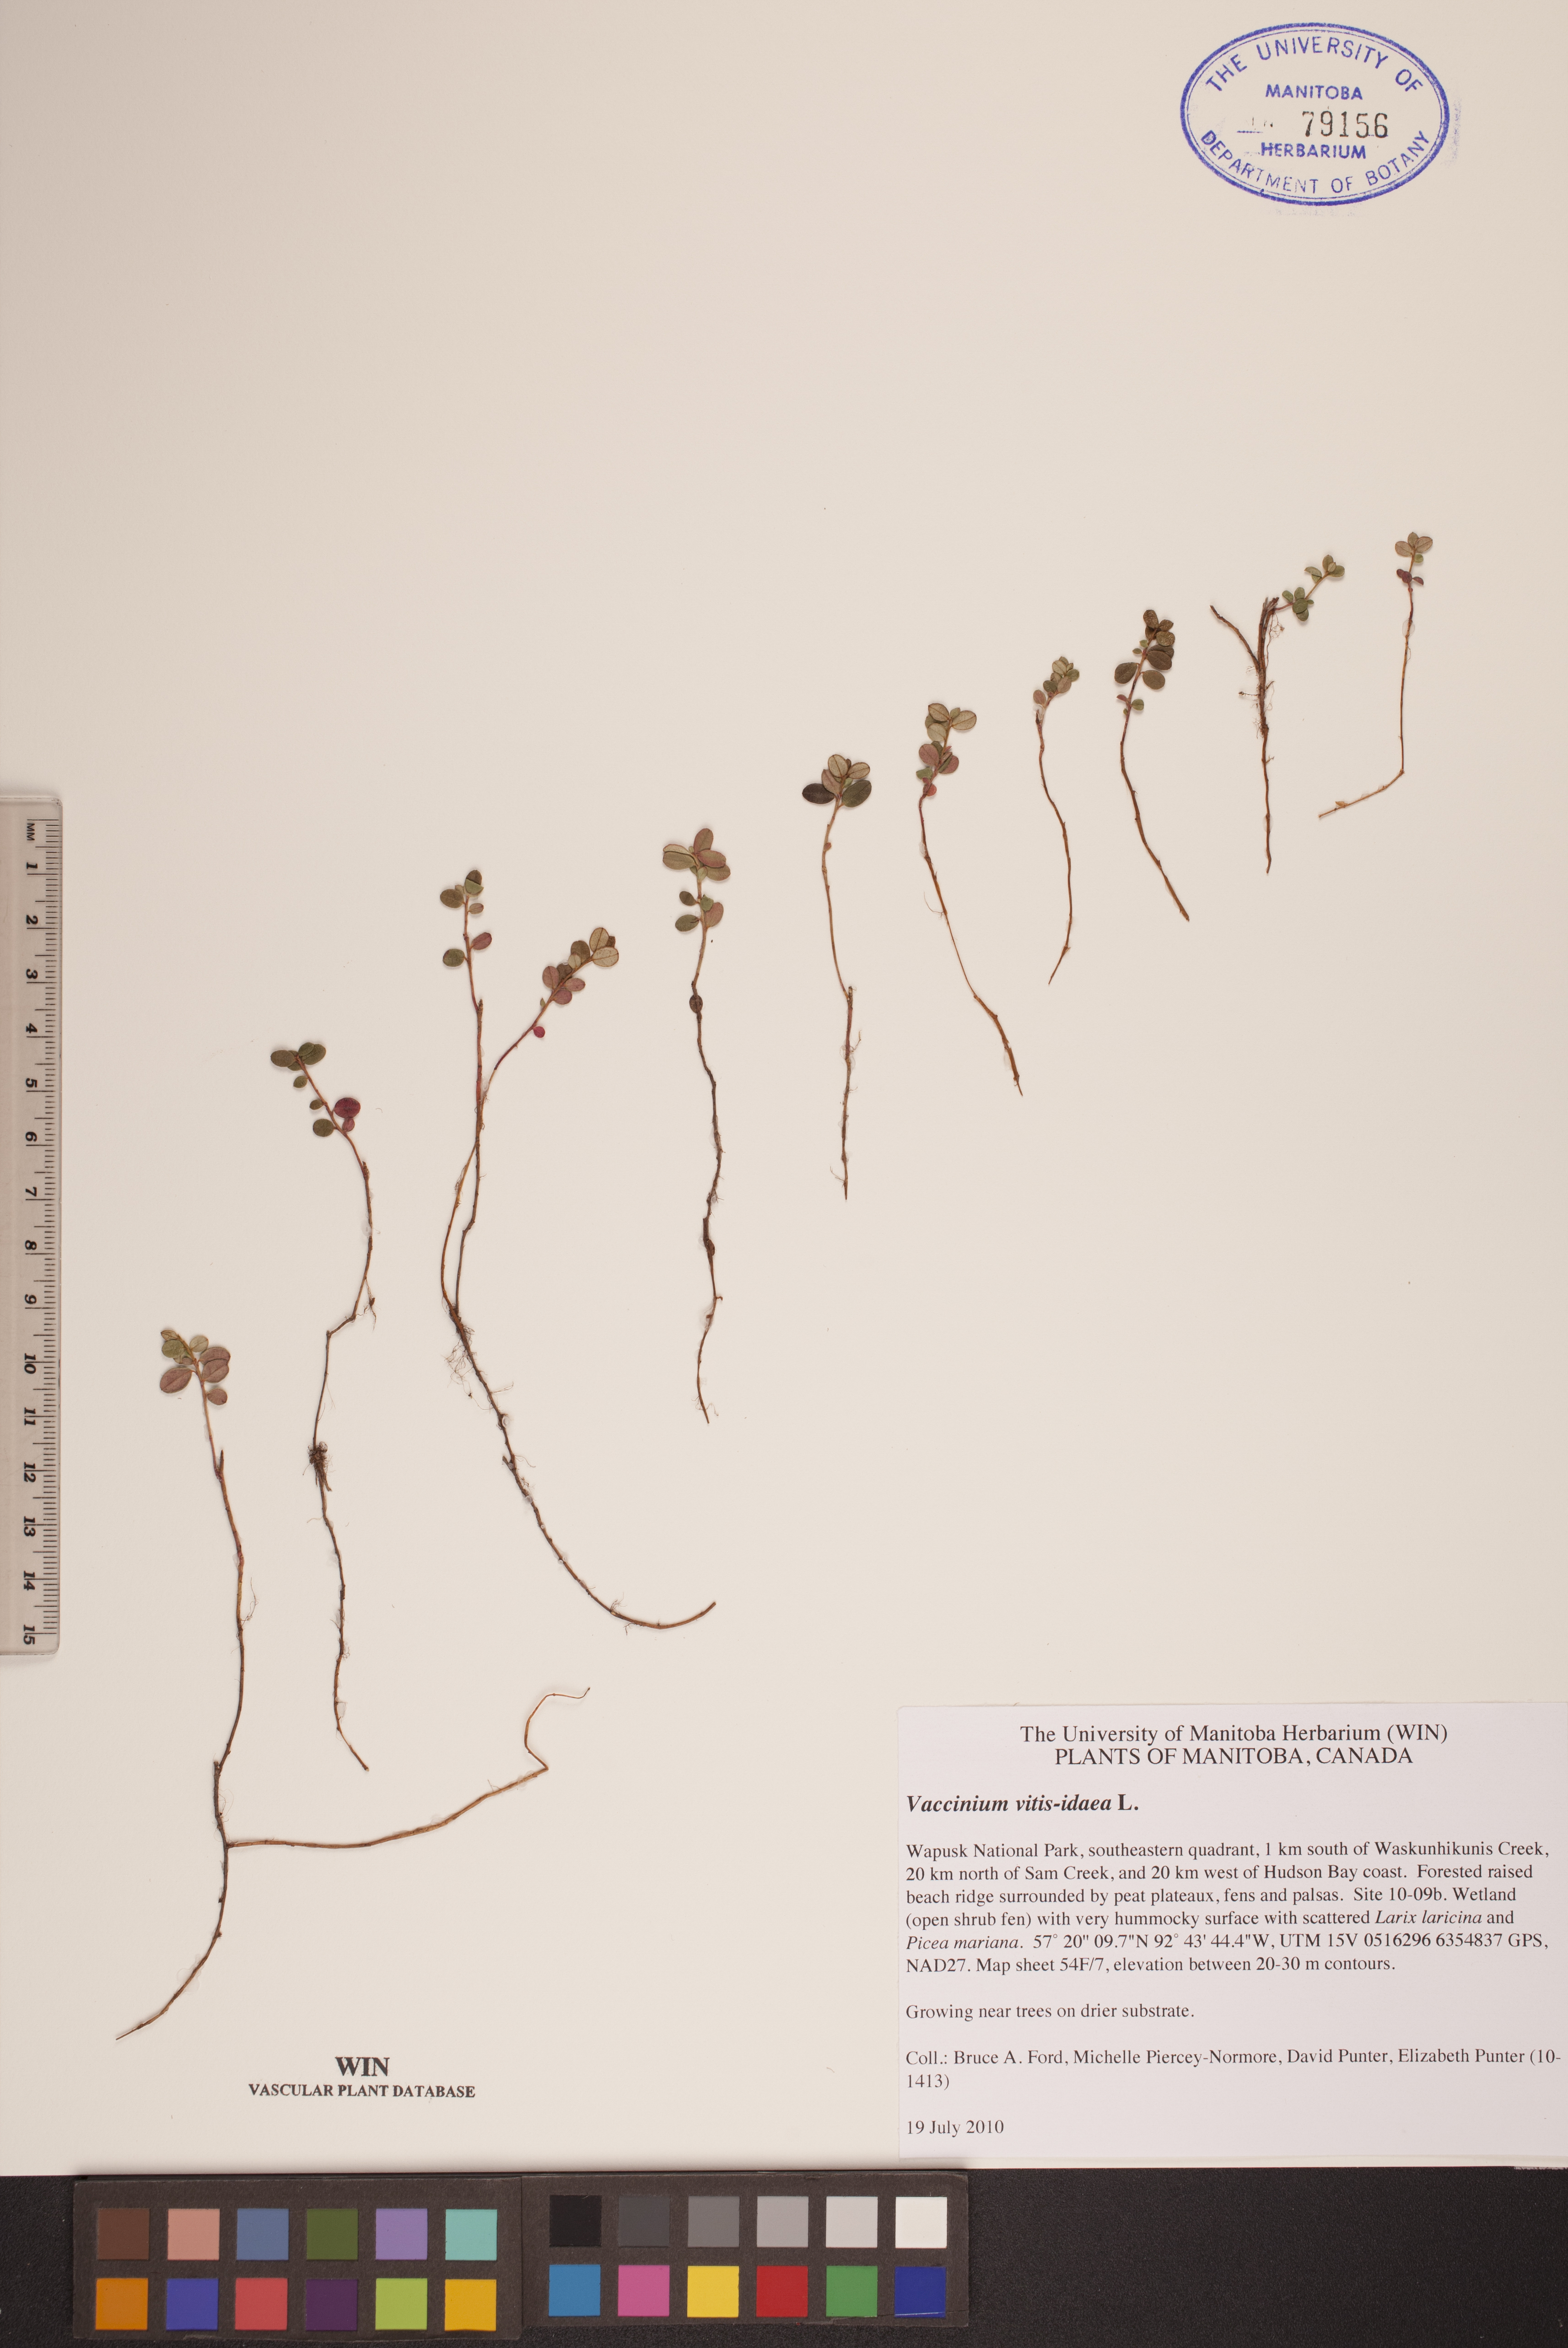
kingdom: Plantae
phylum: Tracheophyta
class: Magnoliopsida
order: Ericales
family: Ericaceae
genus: Vaccinium
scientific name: Vaccinium vitis-idaea
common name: Cowberry
